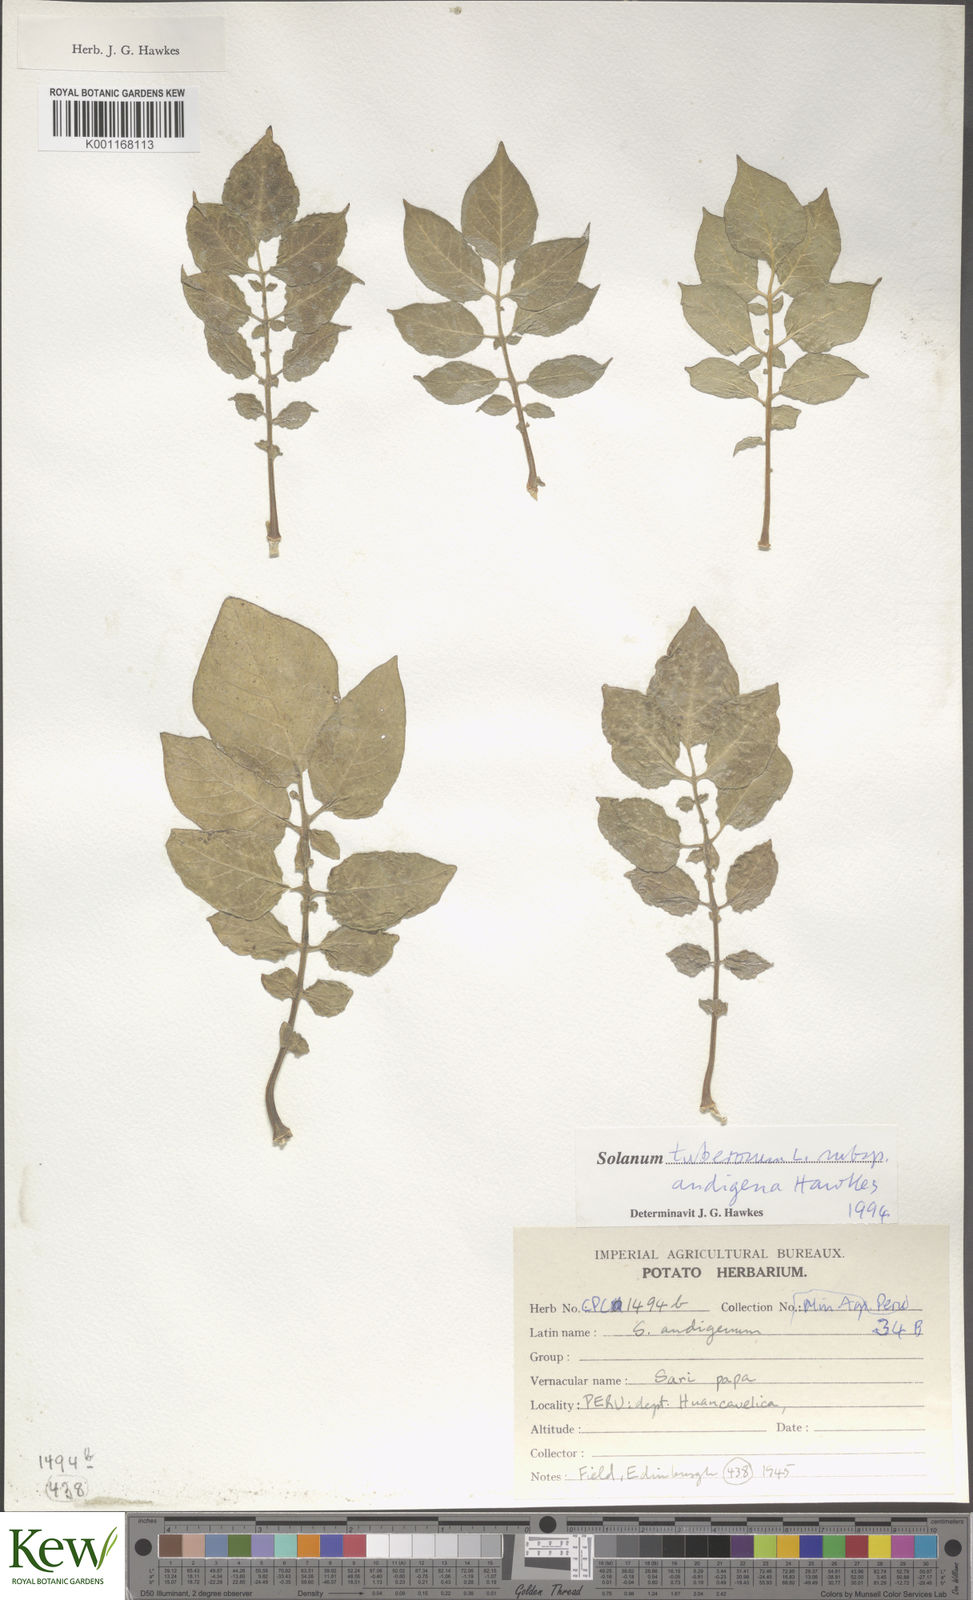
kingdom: Plantae
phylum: Tracheophyta
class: Magnoliopsida
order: Solanales
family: Solanaceae
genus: Solanum
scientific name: Solanum tuberosum
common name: Potato
